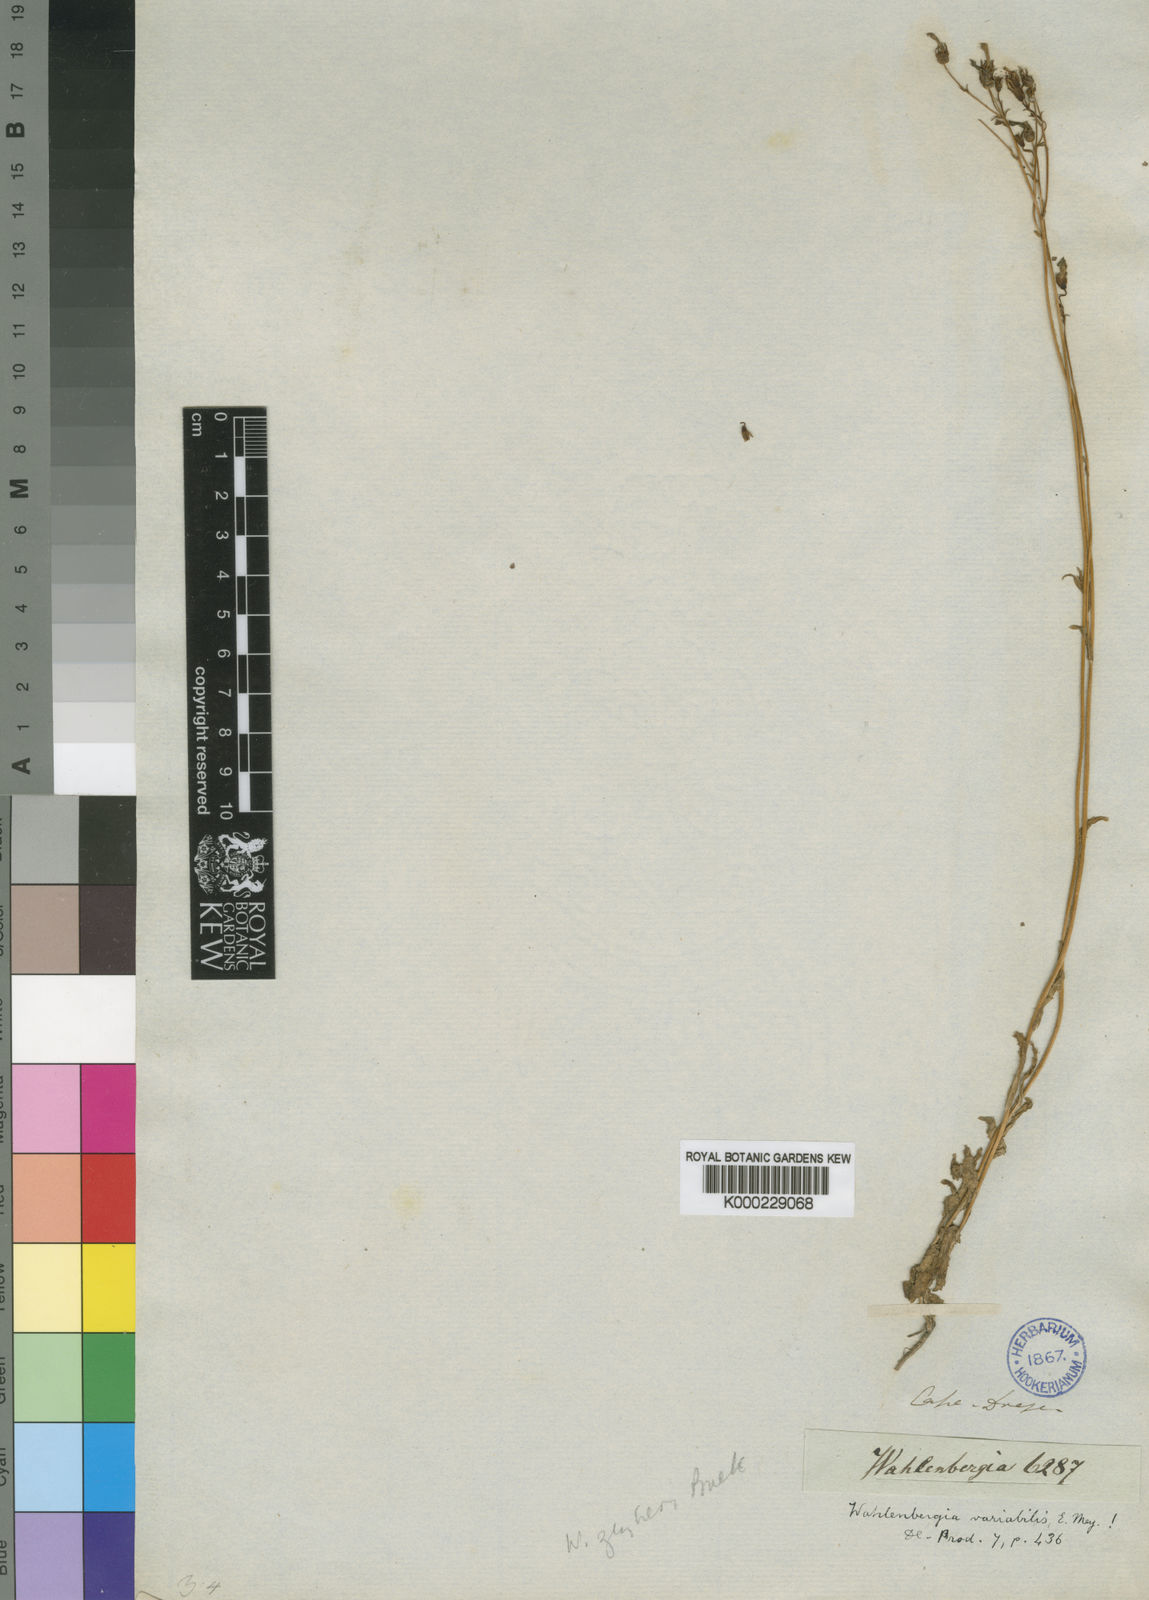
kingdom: Plantae
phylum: Tracheophyta
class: Magnoliopsida
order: Asterales
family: Campanulaceae
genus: Wahlenbergia
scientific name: Wahlenbergia krebsii
